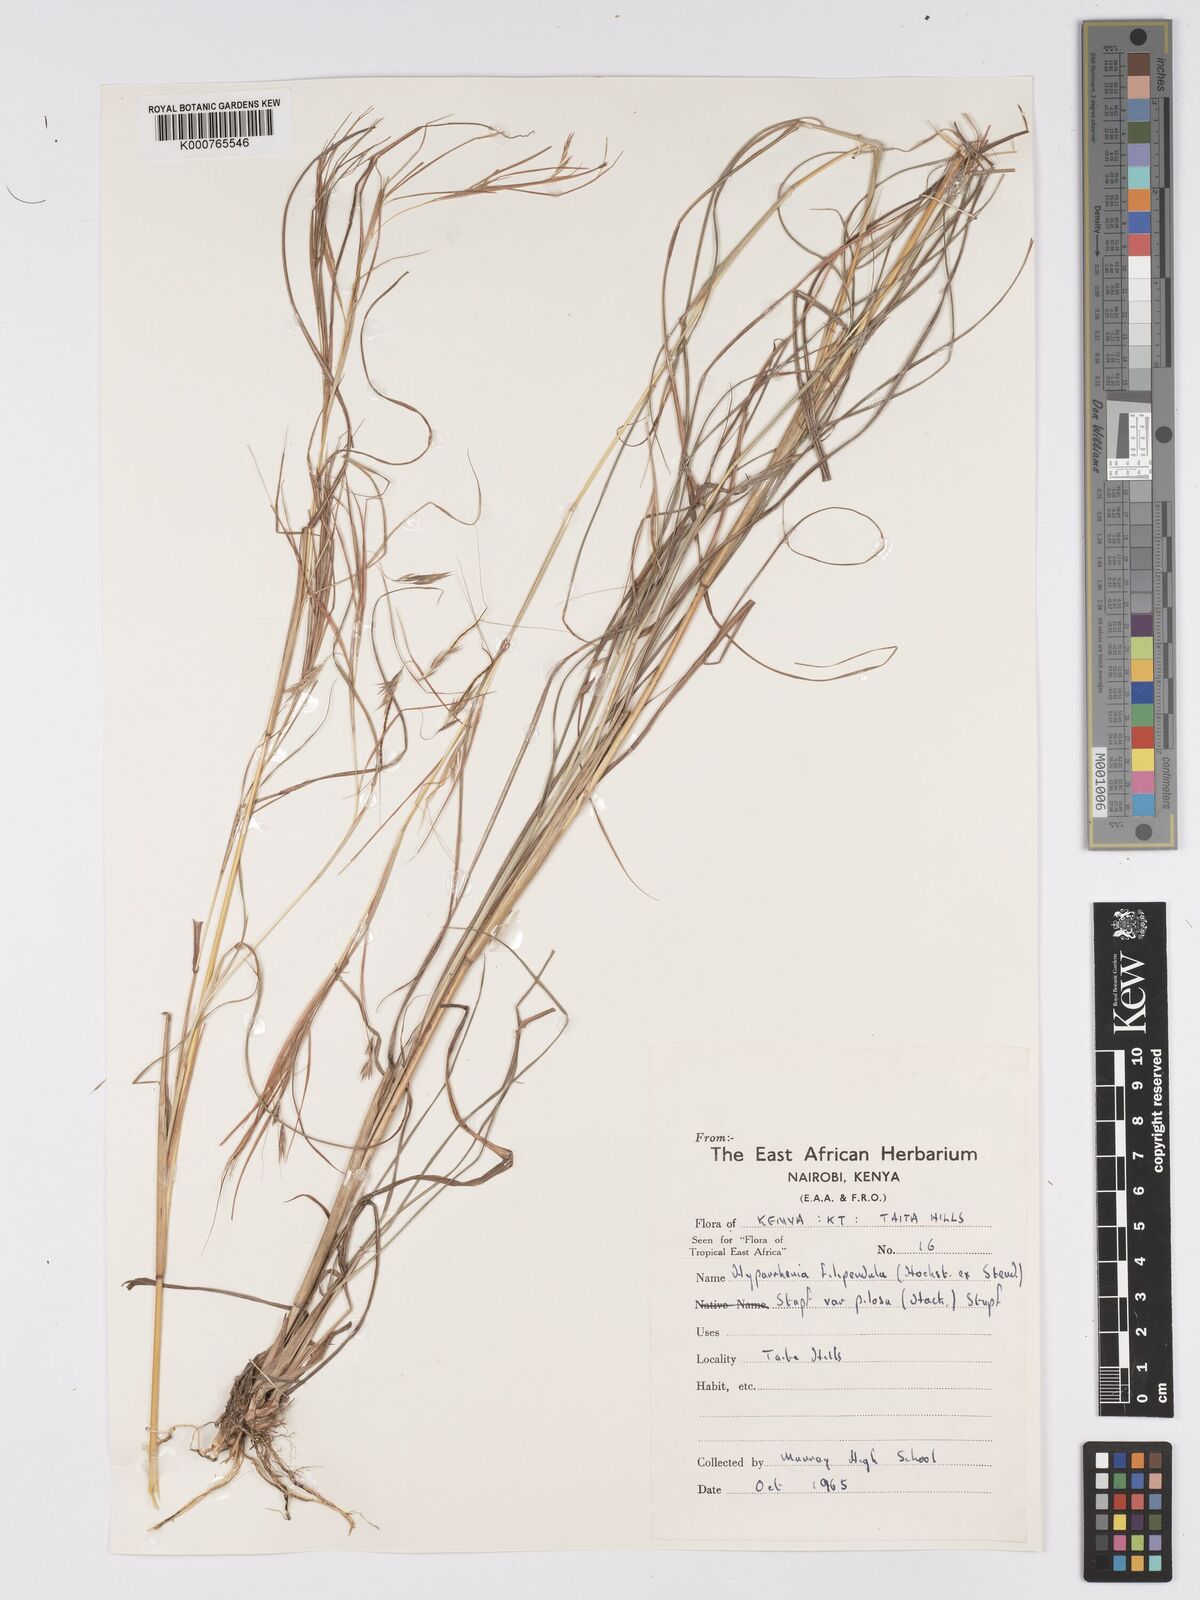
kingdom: Plantae
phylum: Tracheophyta
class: Liliopsida
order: Poales
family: Poaceae
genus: Hyparrhenia
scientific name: Hyparrhenia filipendula
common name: Tambookie grass
